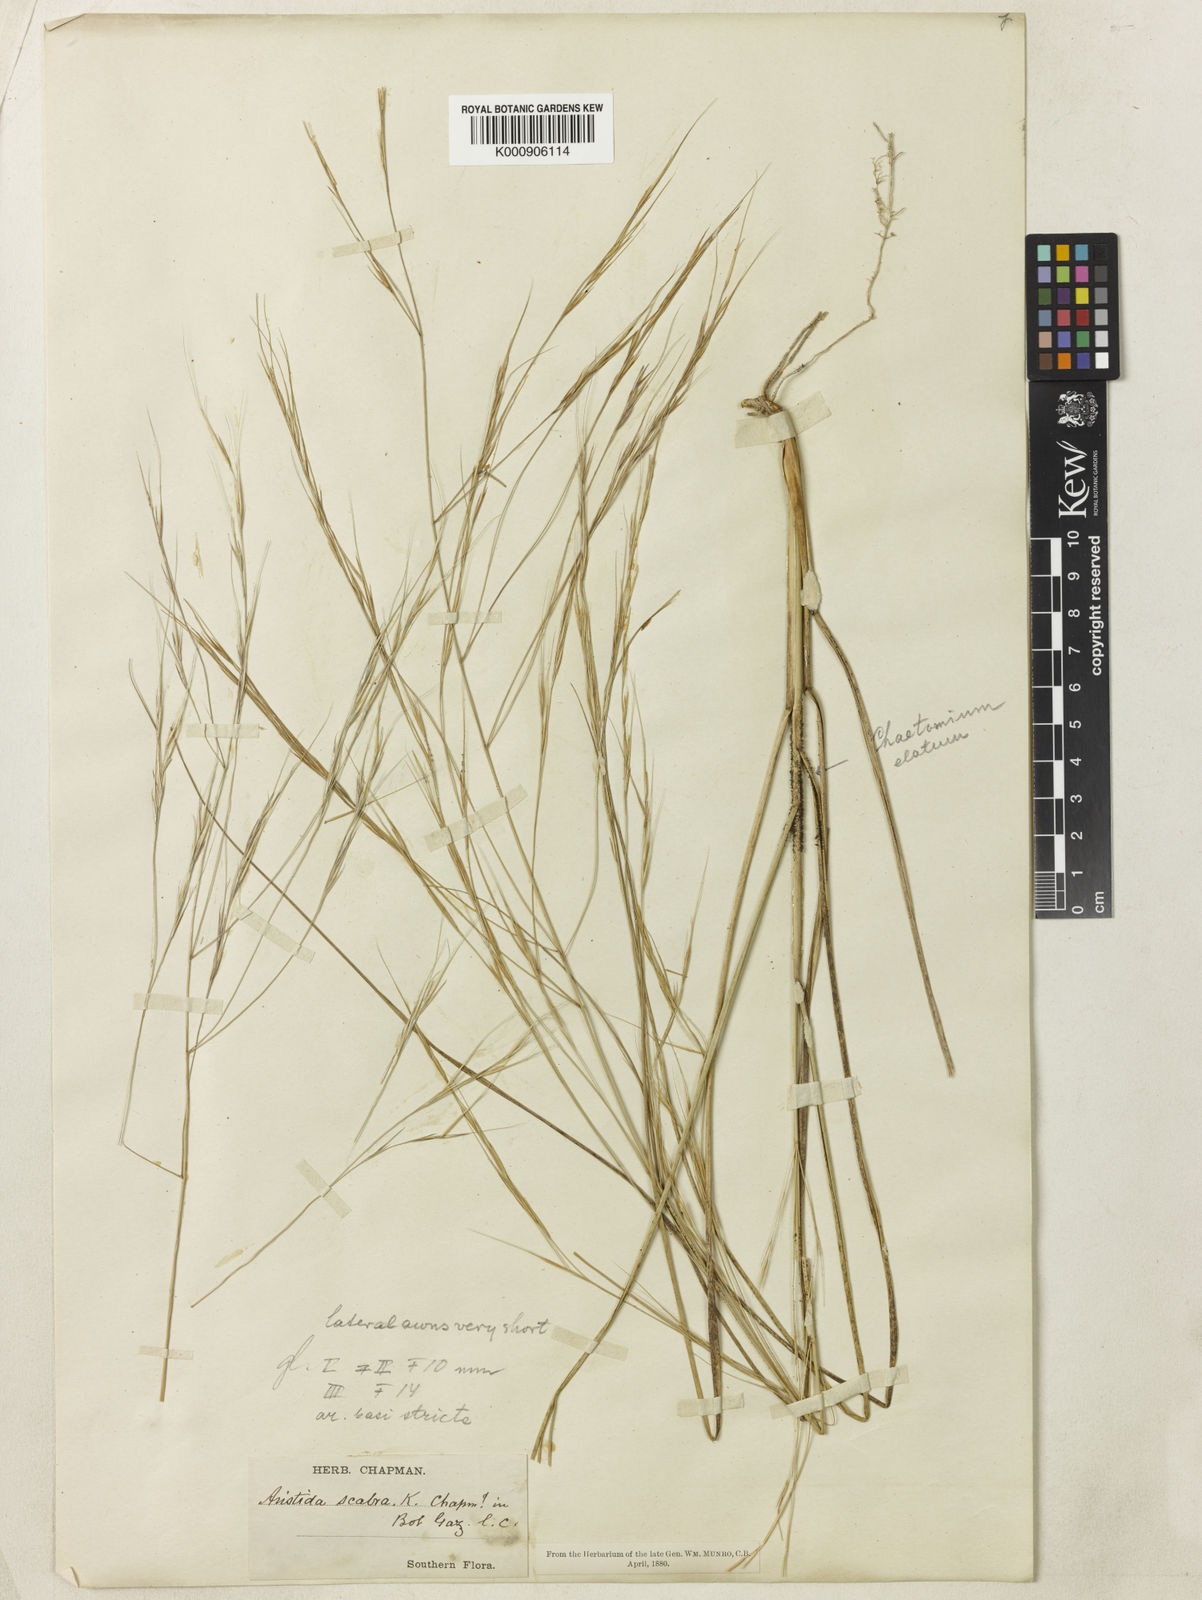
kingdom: Plantae
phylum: Tracheophyta
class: Liliopsida
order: Poales
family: Poaceae
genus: Aristida
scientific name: Aristida
